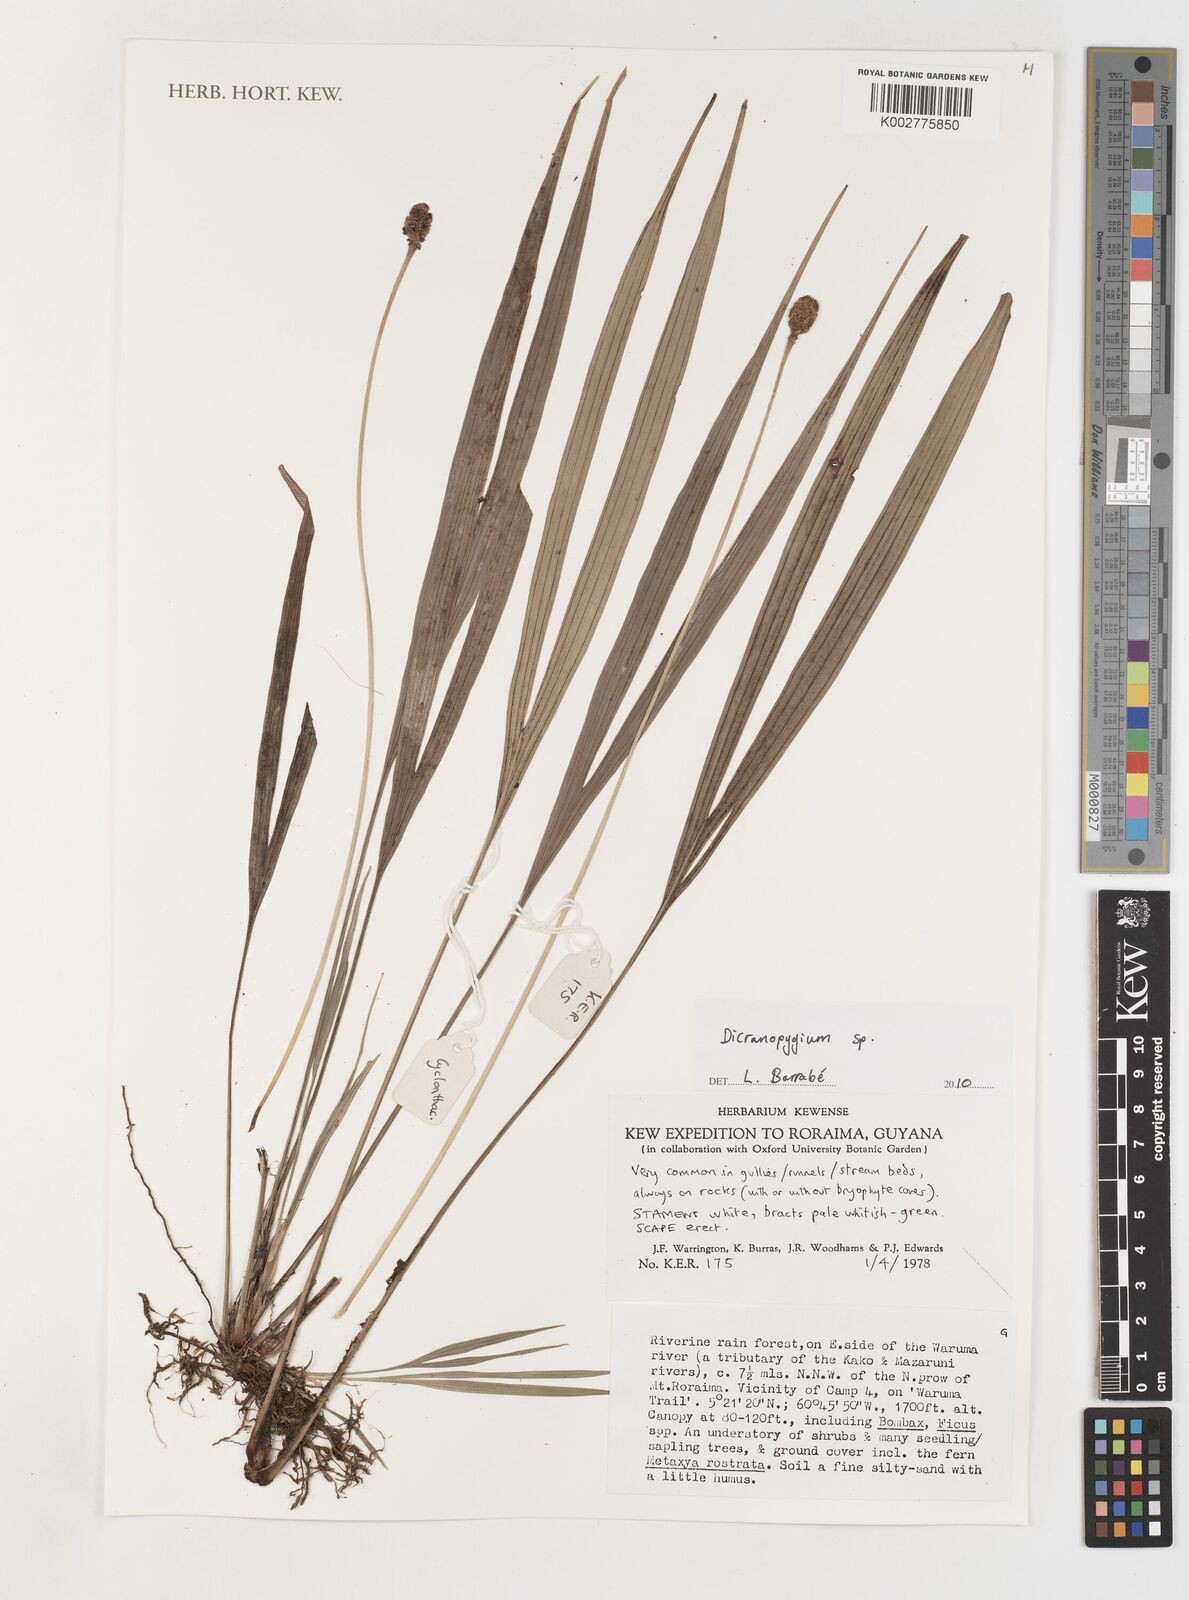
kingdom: Plantae
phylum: Tracheophyta
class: Liliopsida
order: Pandanales
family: Cyclanthaceae
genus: Dicranopygium
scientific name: Dicranopygium
